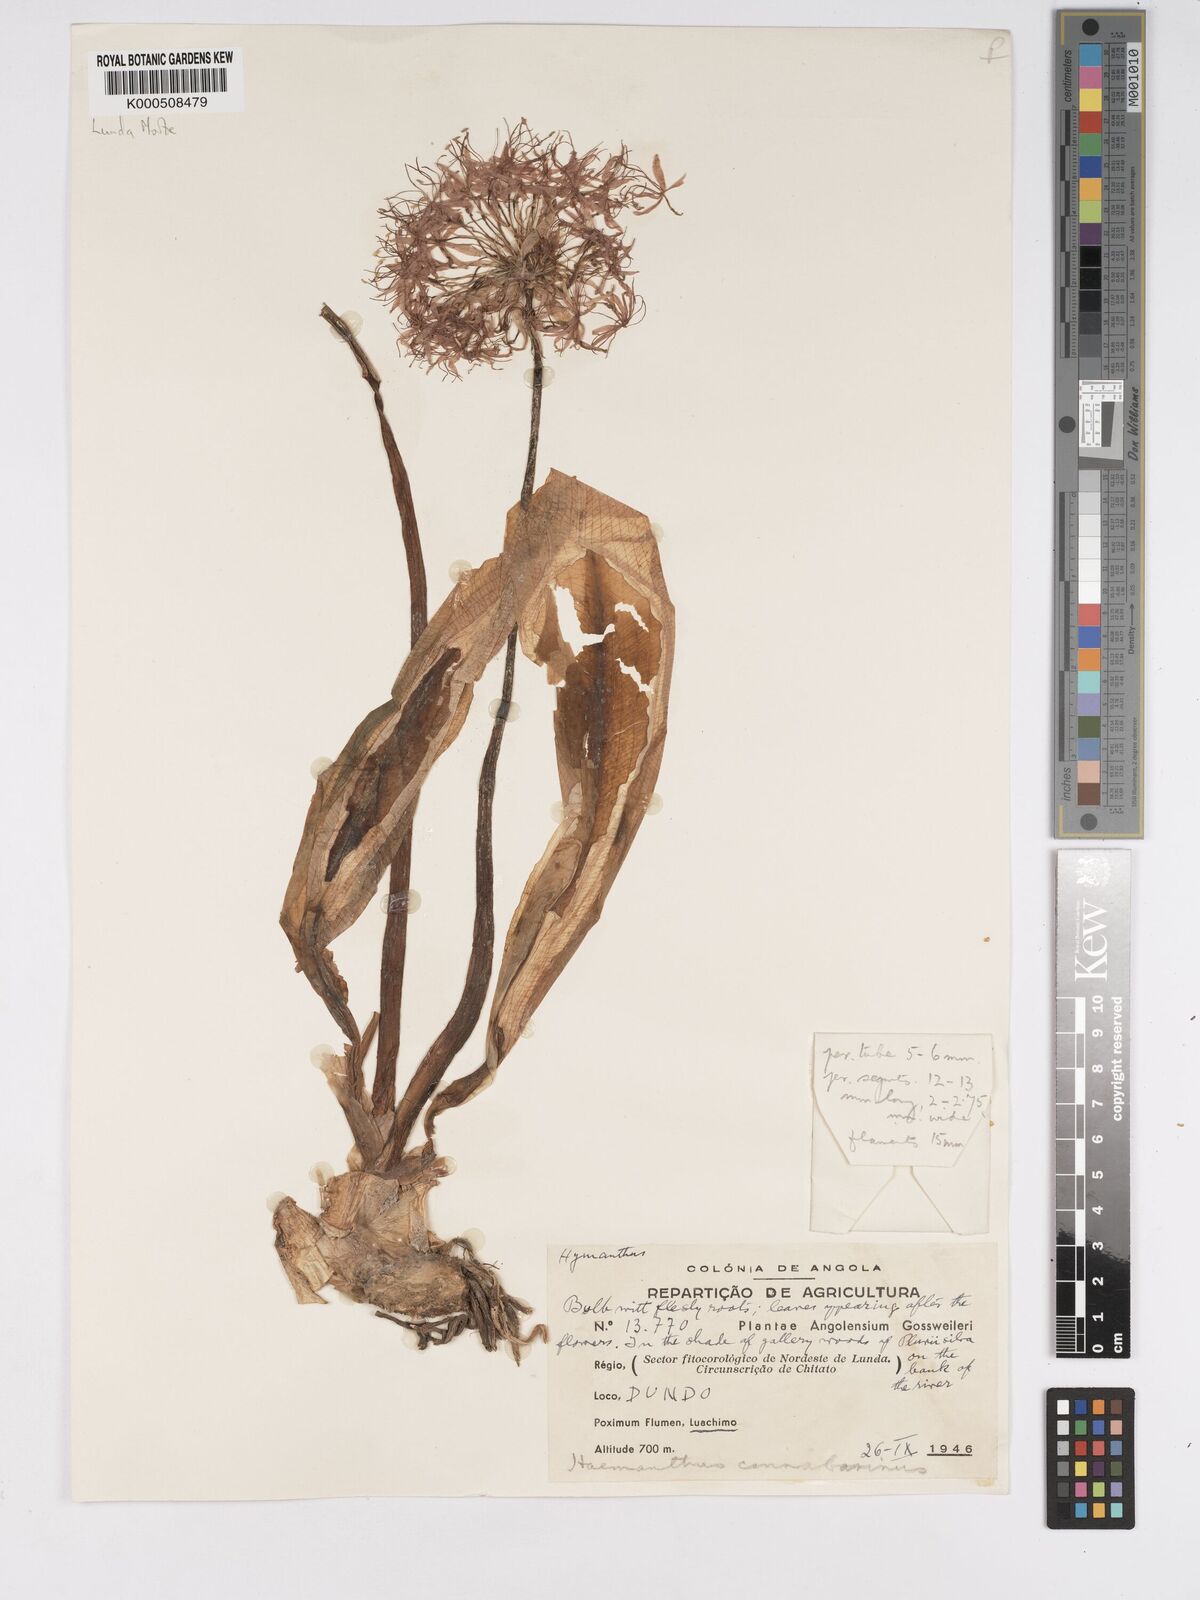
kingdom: Plantae
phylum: Tracheophyta
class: Liliopsida
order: Asparagales
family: Amaryllidaceae
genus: Scadoxus
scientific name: Scadoxus cinnabarinus
